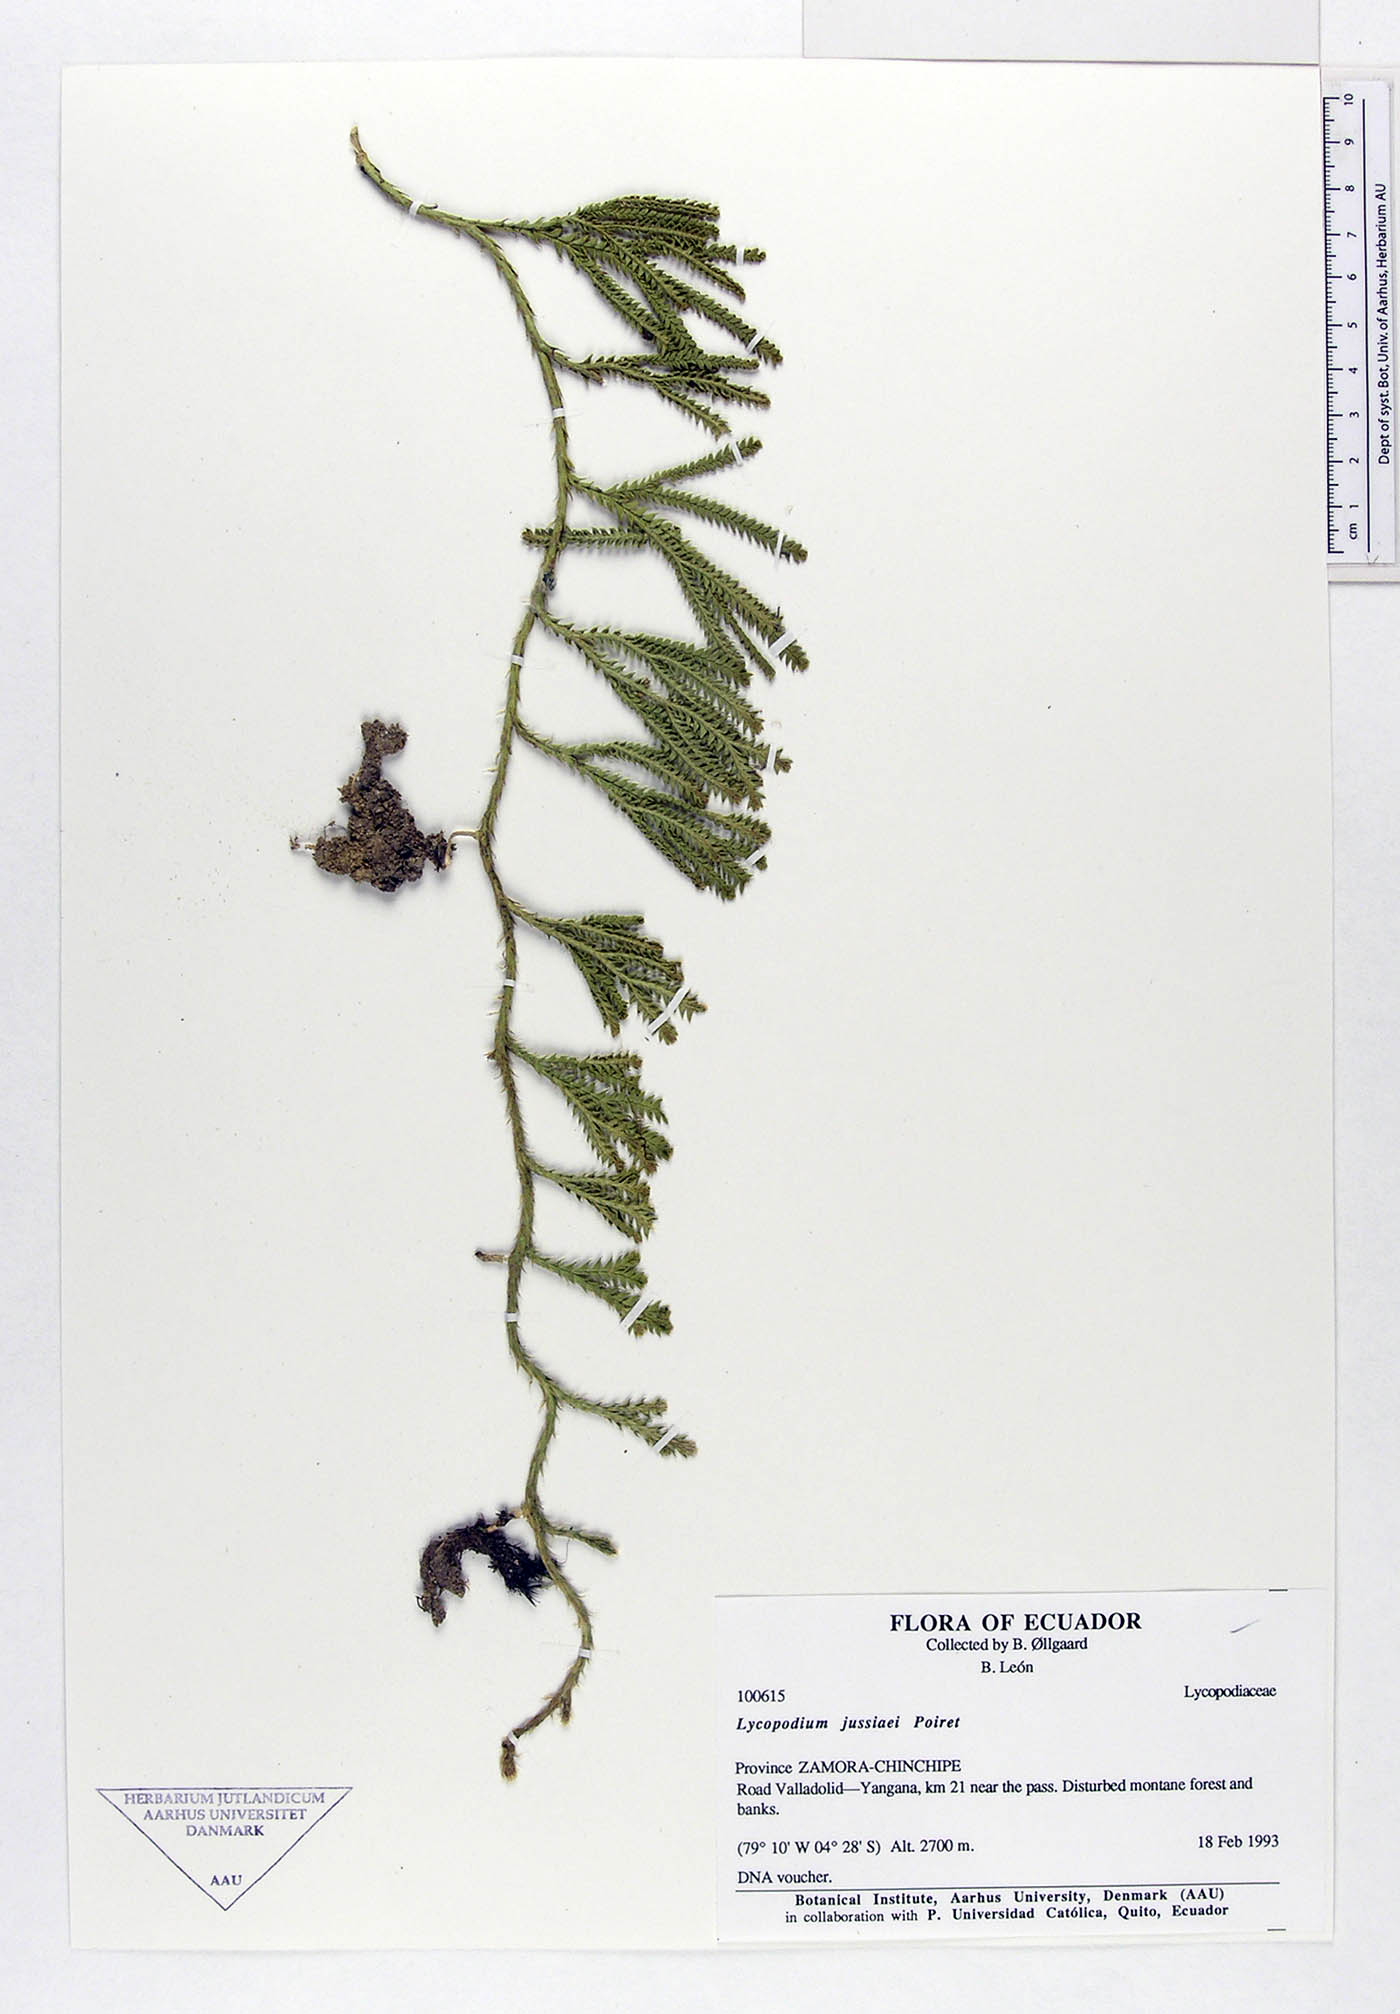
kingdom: Plantae
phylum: Tracheophyta
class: Lycopodiopsida
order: Lycopodiales
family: Lycopodiaceae
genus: Diphasium
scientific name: Diphasium jussiaei
